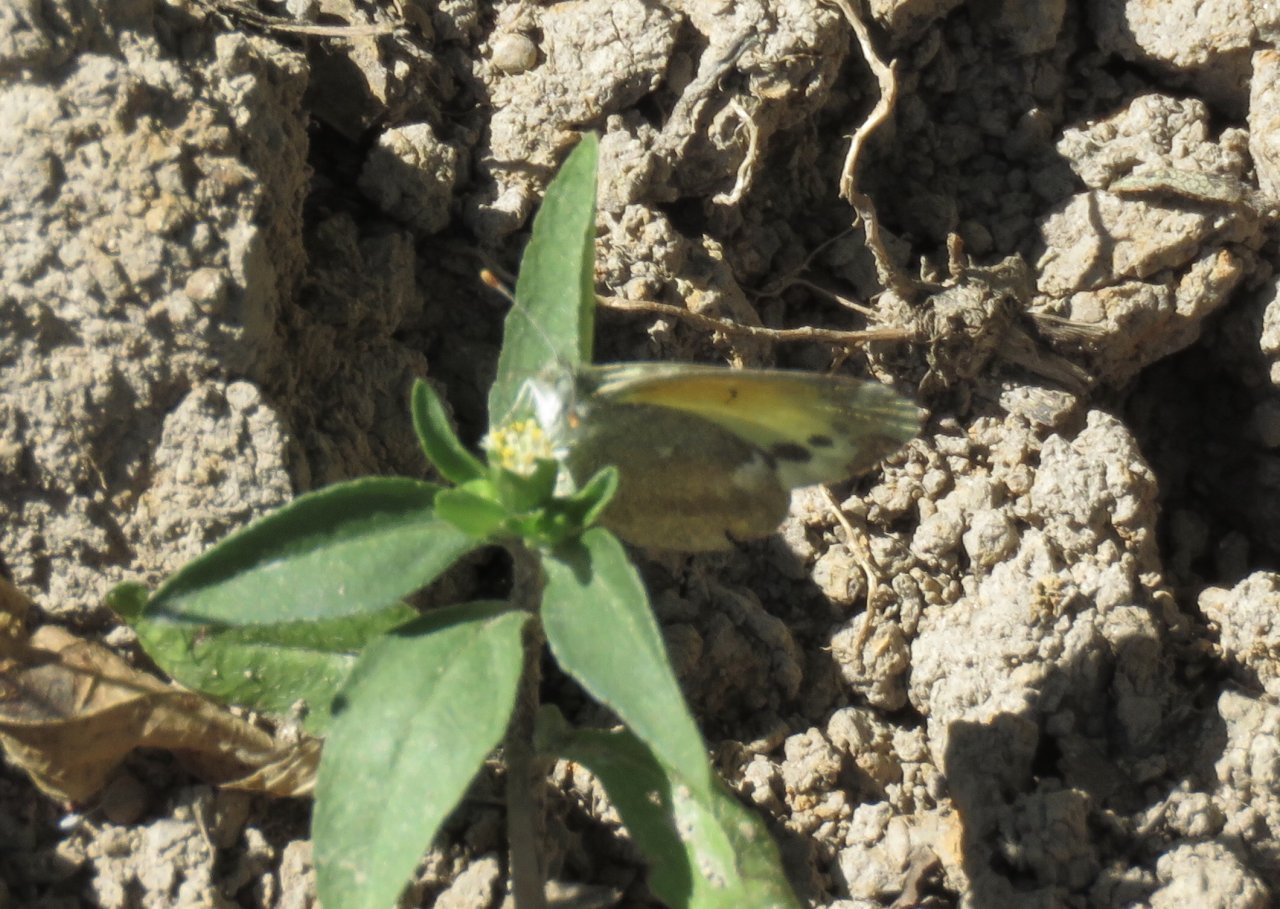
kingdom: Animalia
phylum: Arthropoda
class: Insecta
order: Lepidoptera
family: Pieridae
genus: Nathalis
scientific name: Nathalis iole
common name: Dainty Sulphur
